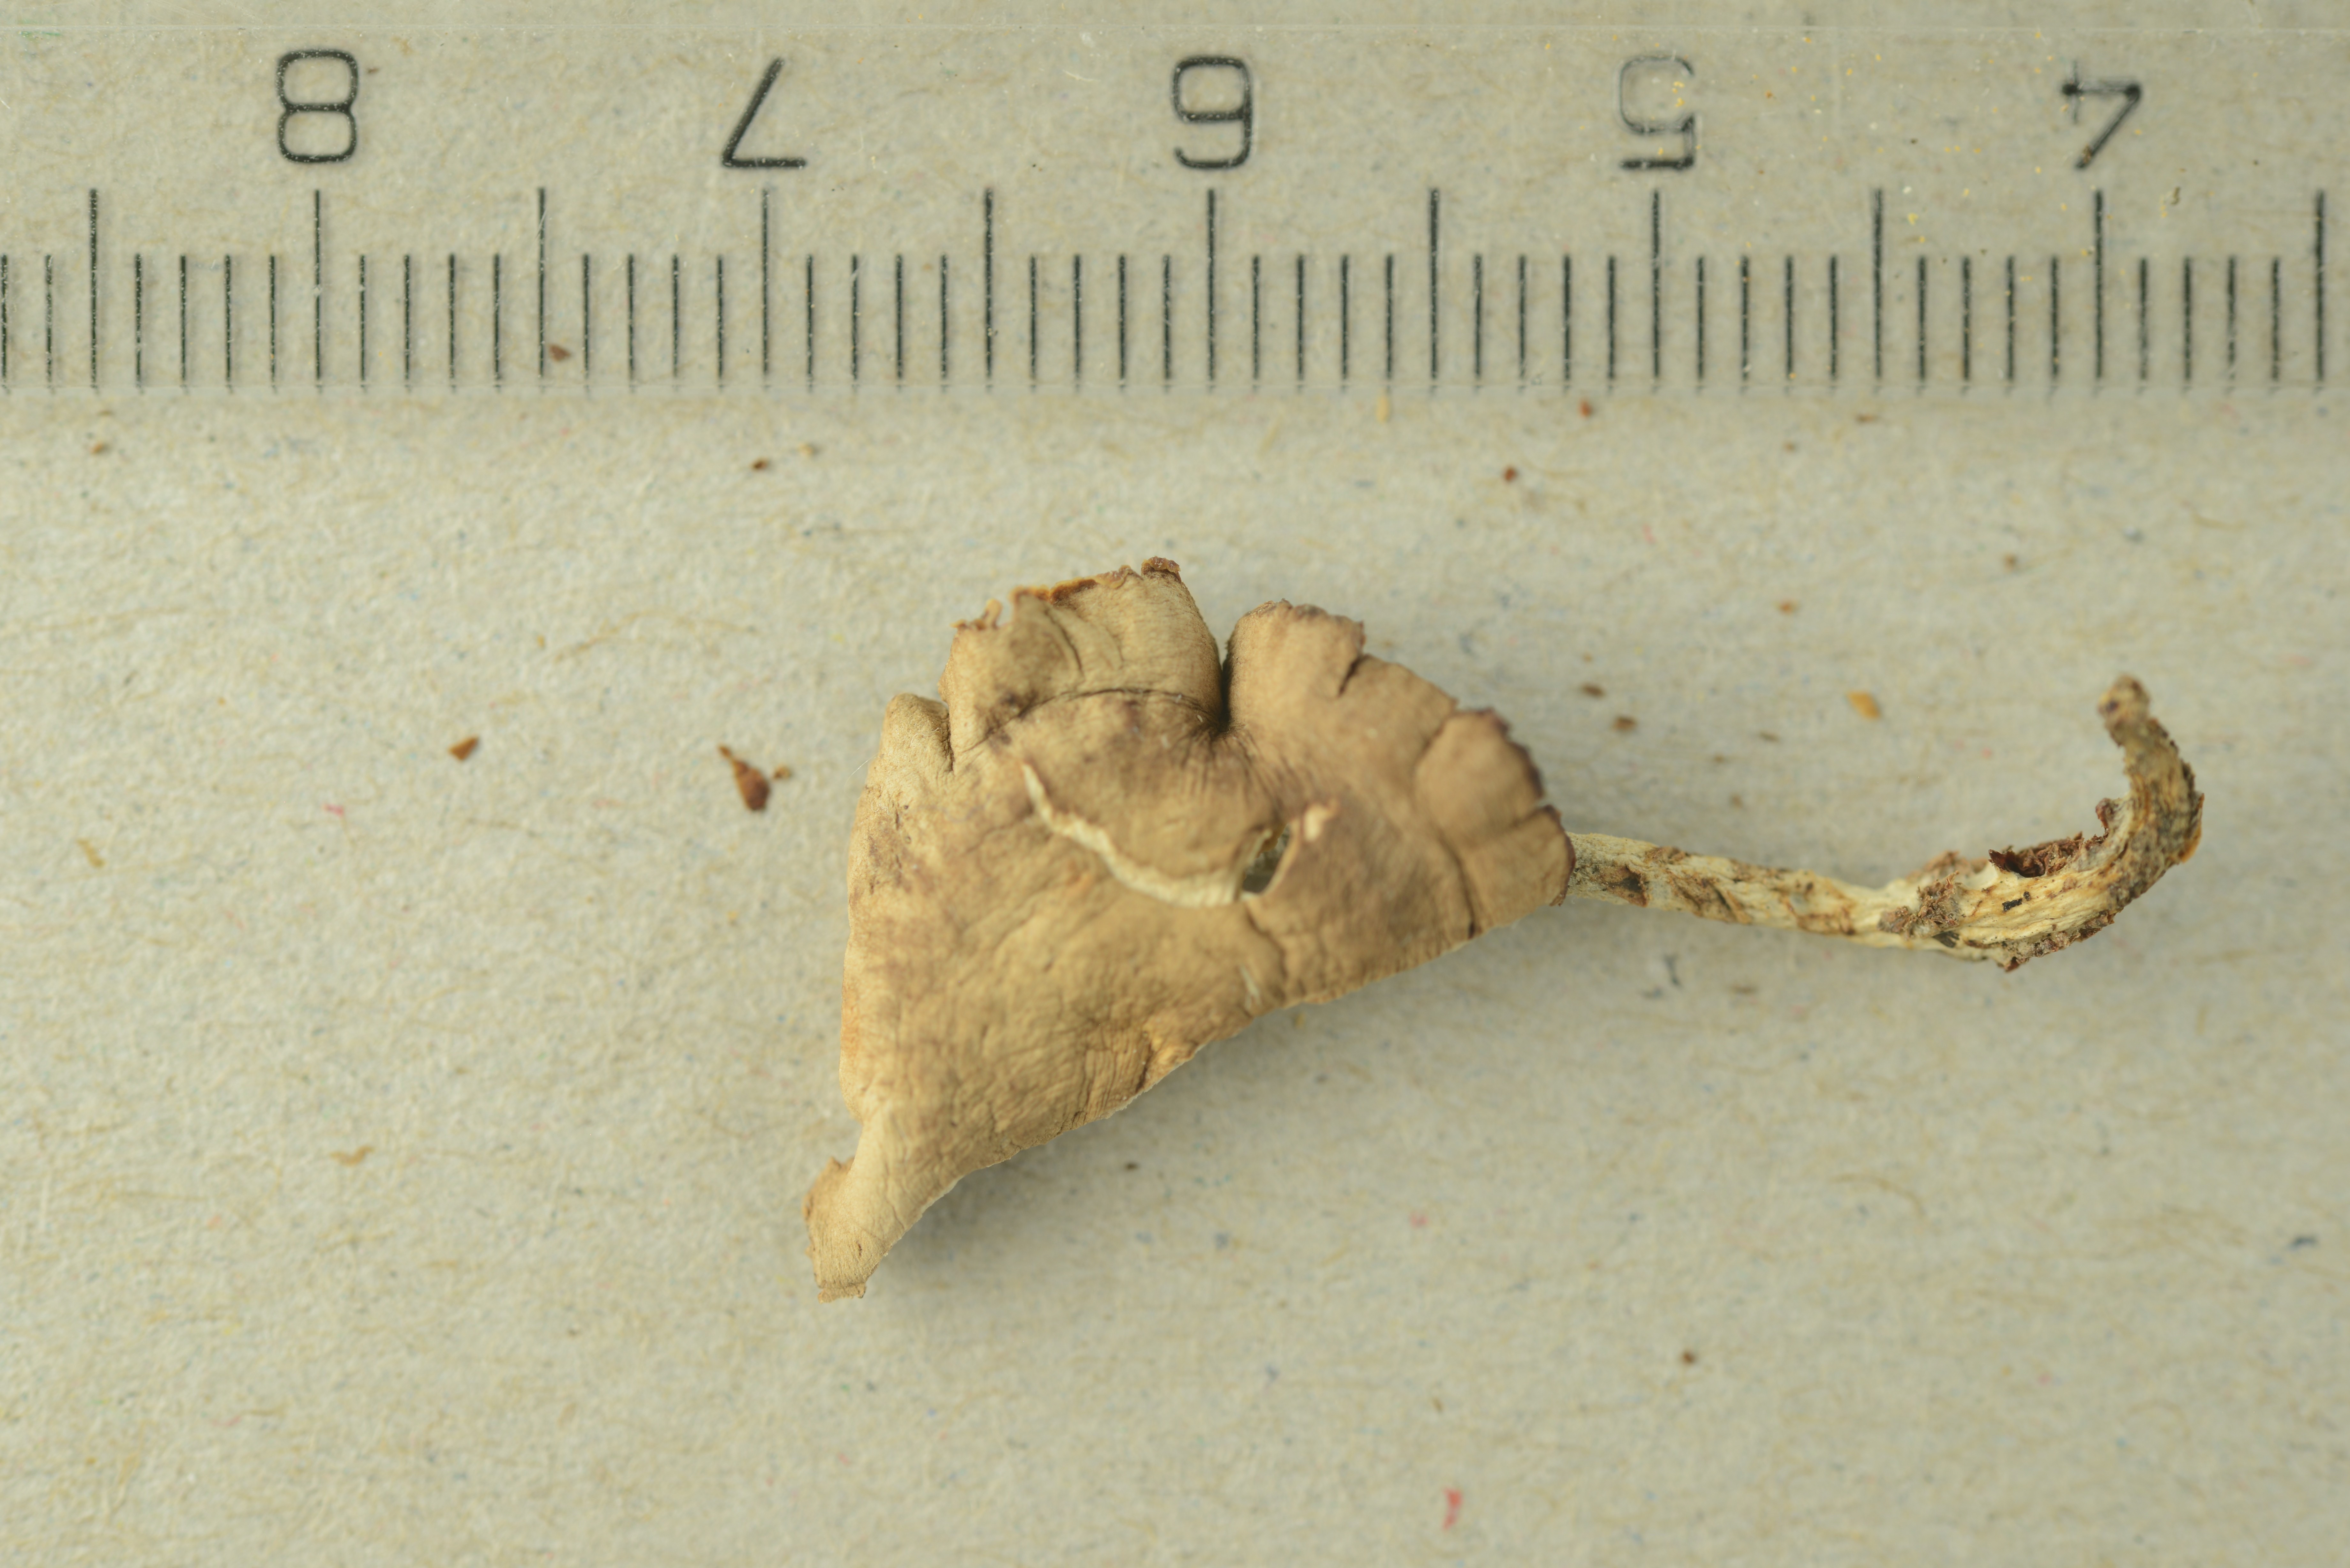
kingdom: Fungi
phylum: Basidiomycota
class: Agaricomycetes
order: Agaricales
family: Omphalotaceae
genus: Gymnopus
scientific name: Gymnopus impudicus
